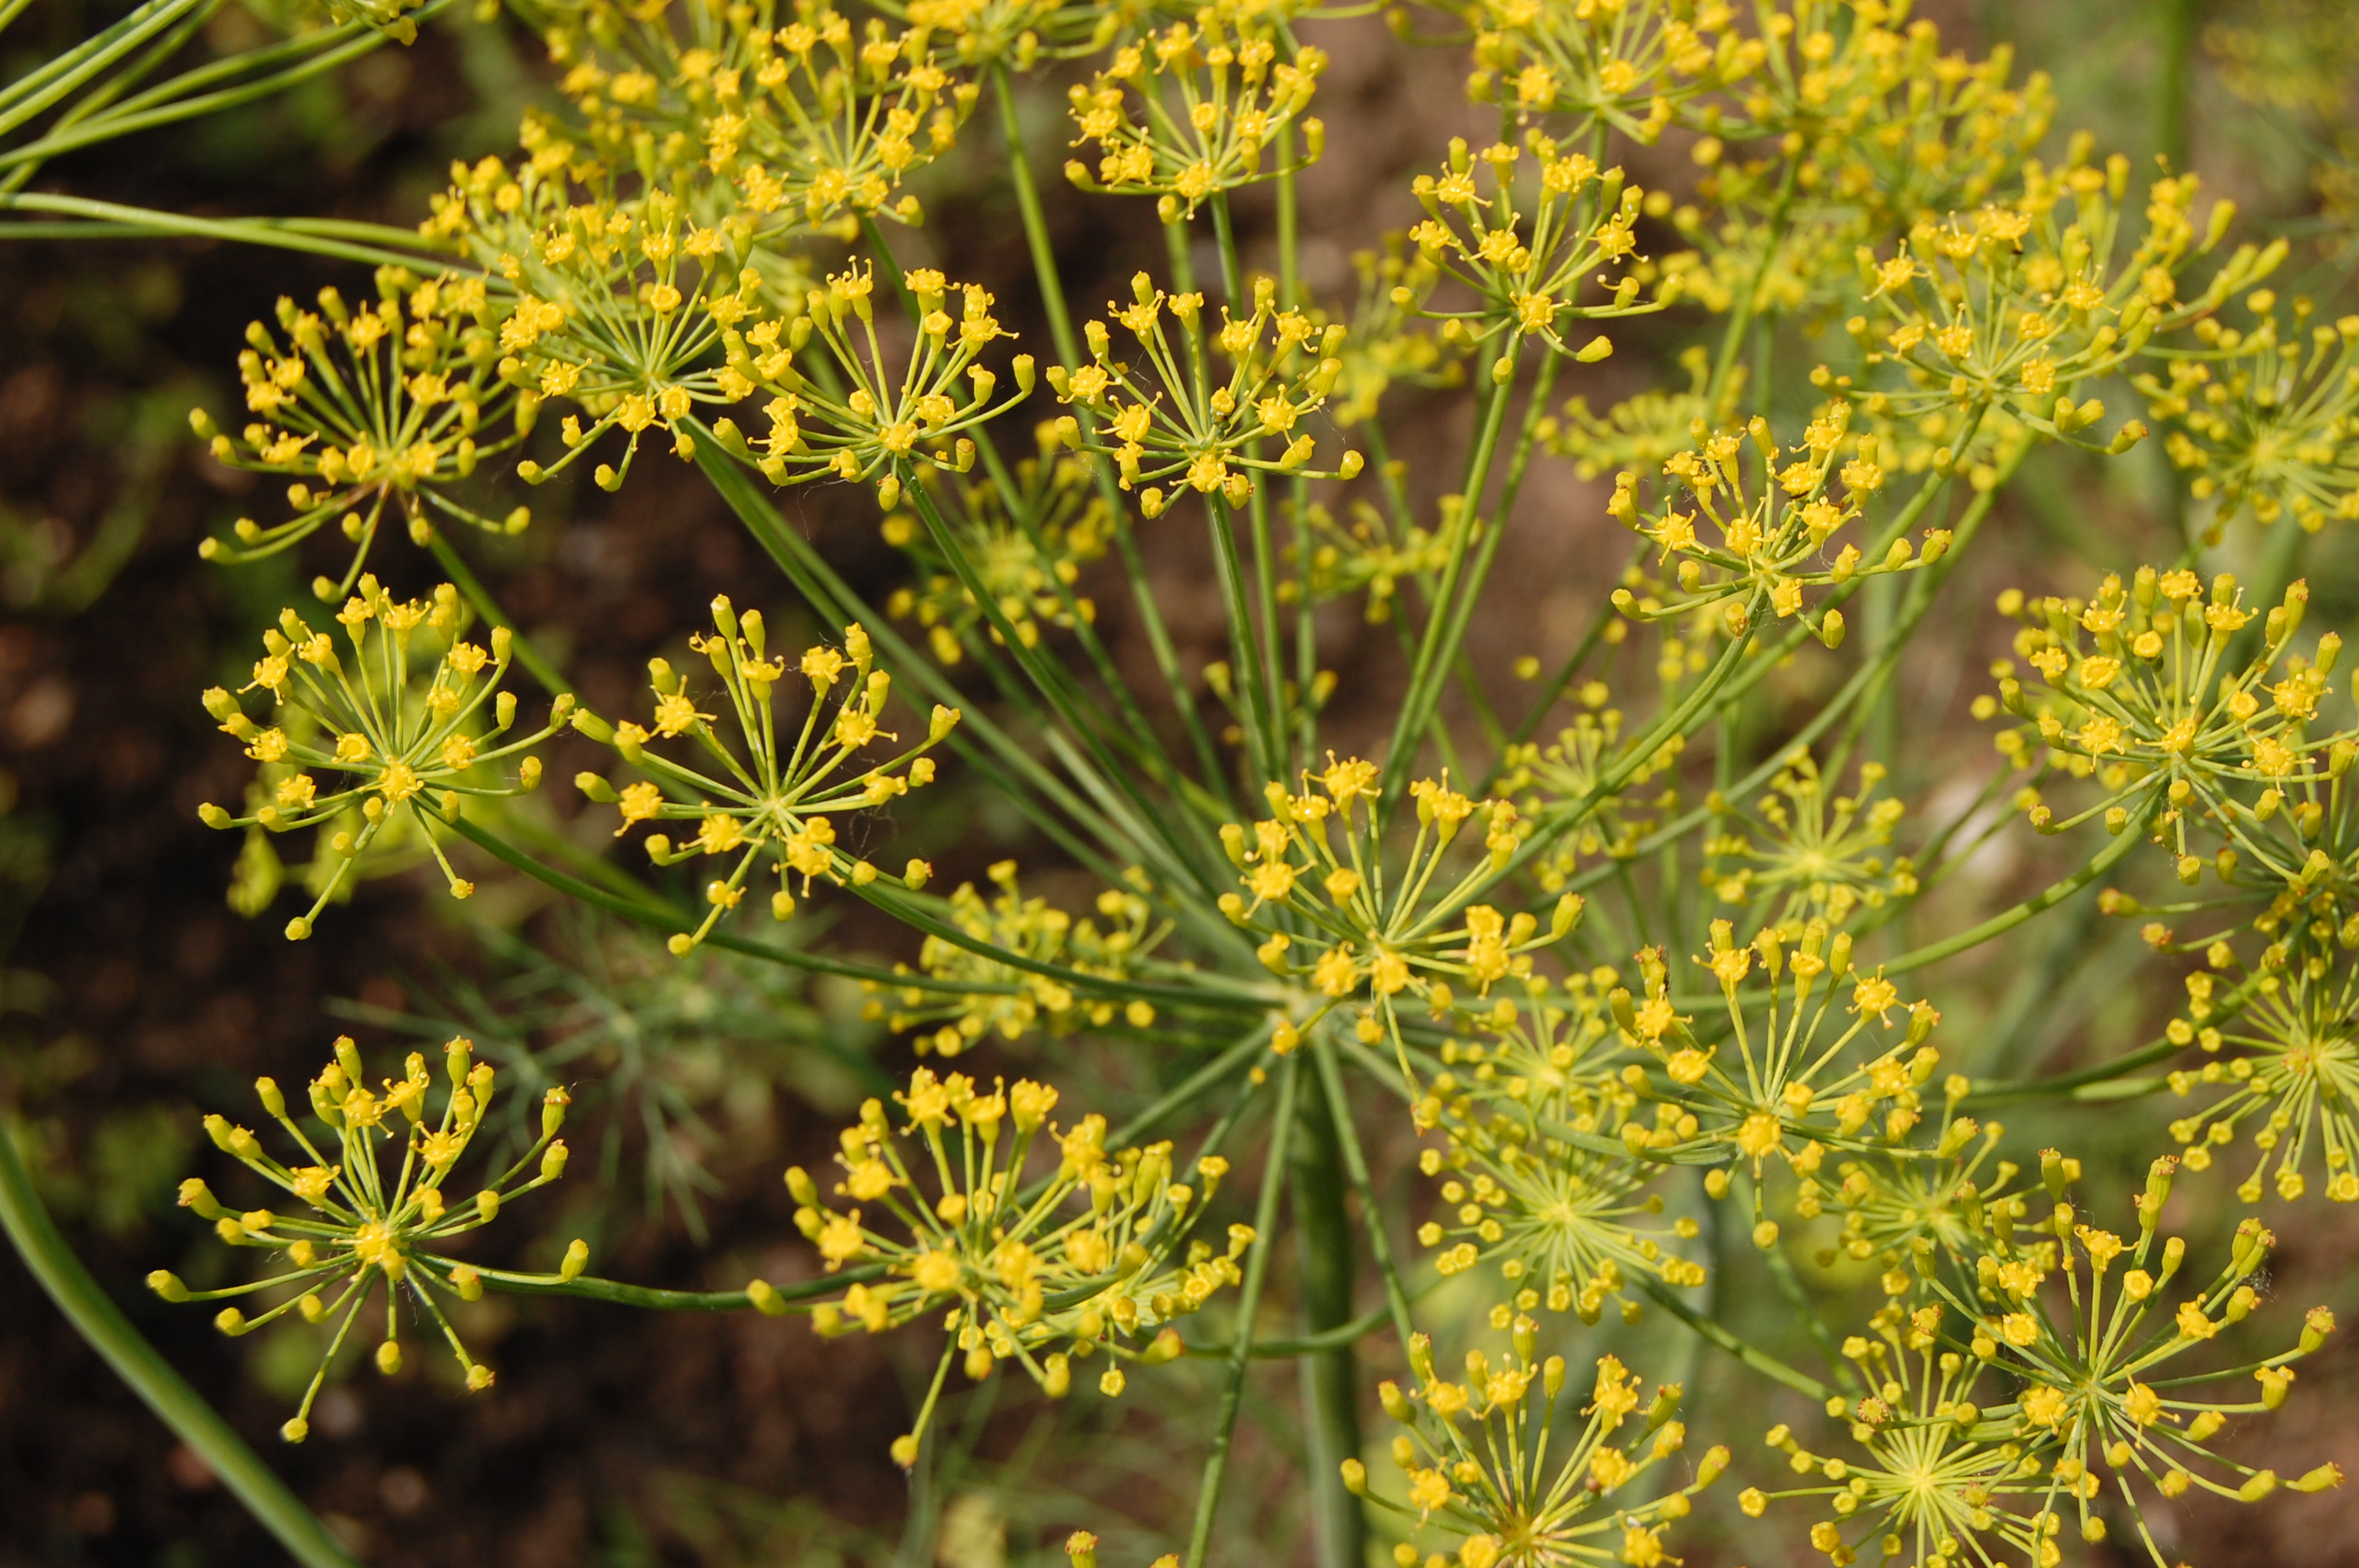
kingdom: Plantae
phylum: Tracheophyta
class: Magnoliopsida
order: Apiales
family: Apiaceae
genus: Anethum
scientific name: Anethum graveolens
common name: Dill
